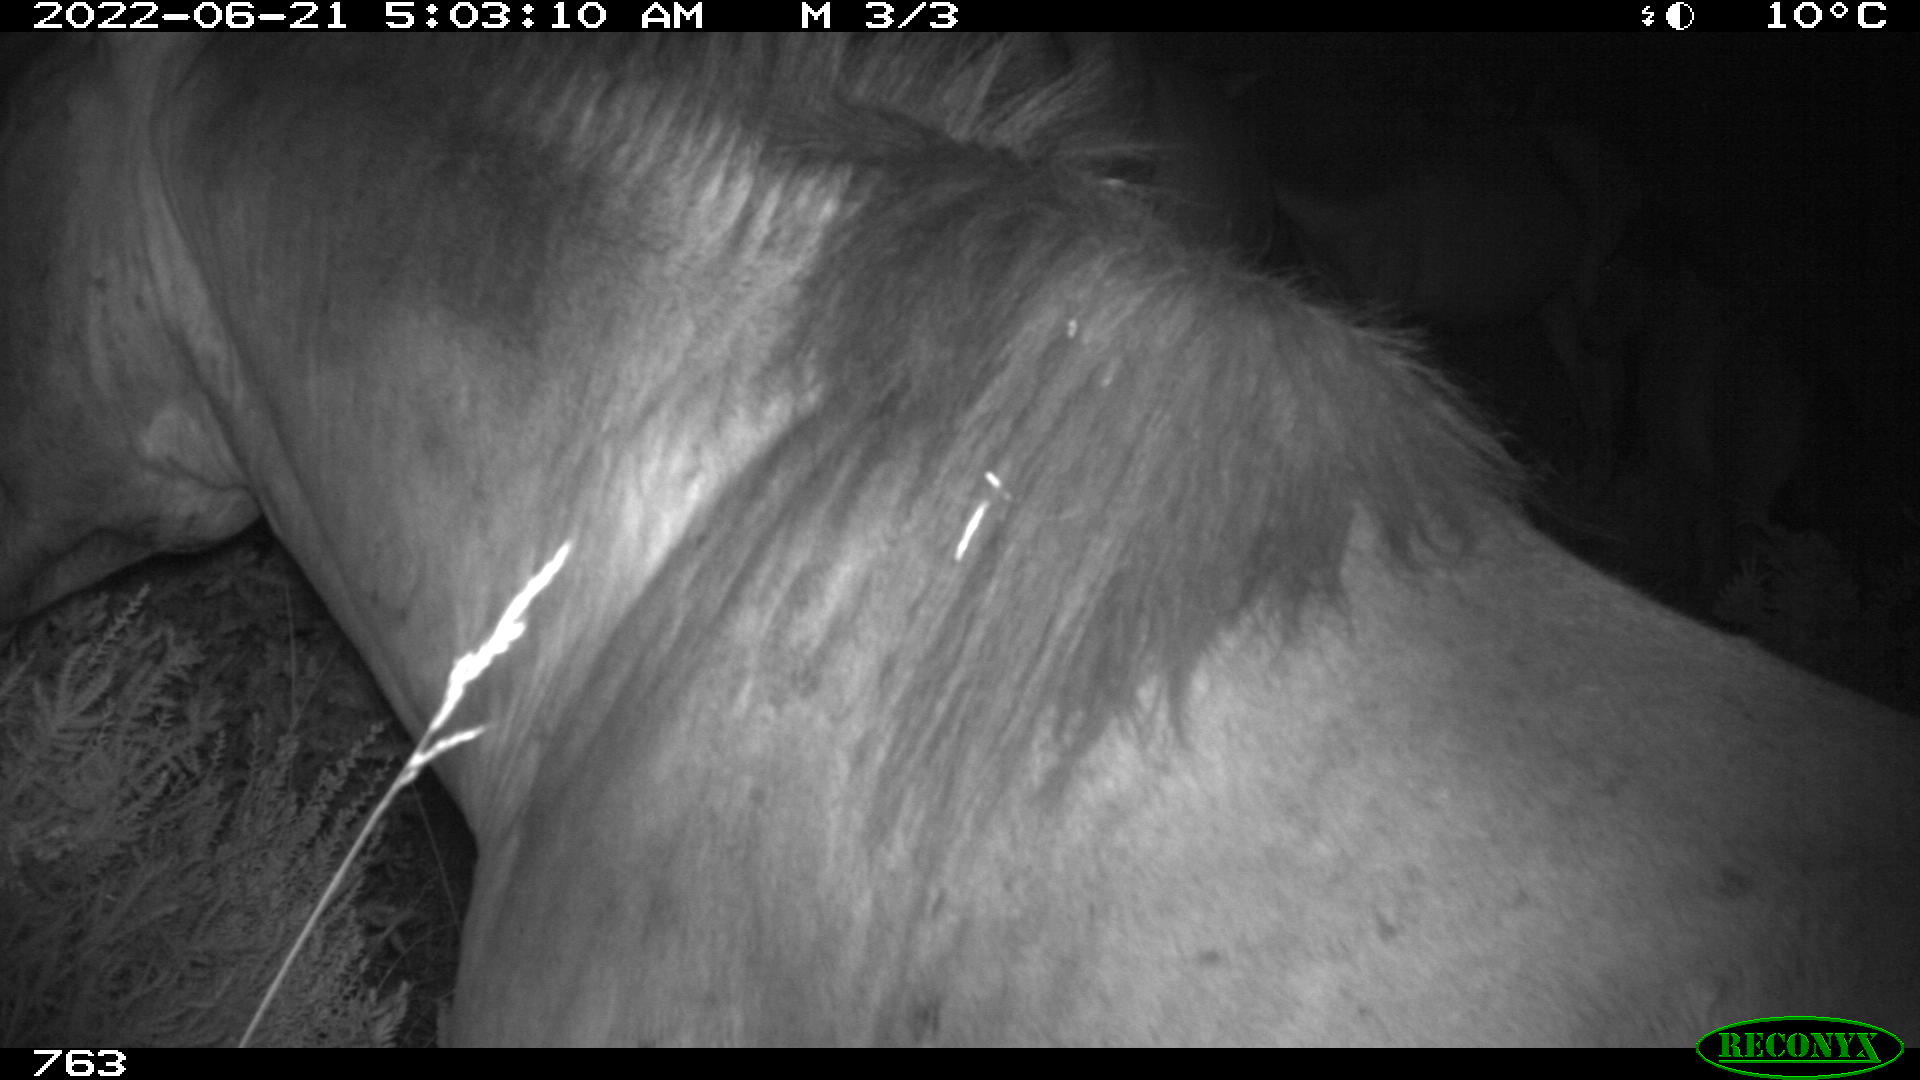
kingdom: Animalia
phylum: Chordata
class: Mammalia
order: Perissodactyla
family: Equidae
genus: Equus
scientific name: Equus caballus
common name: Horse
